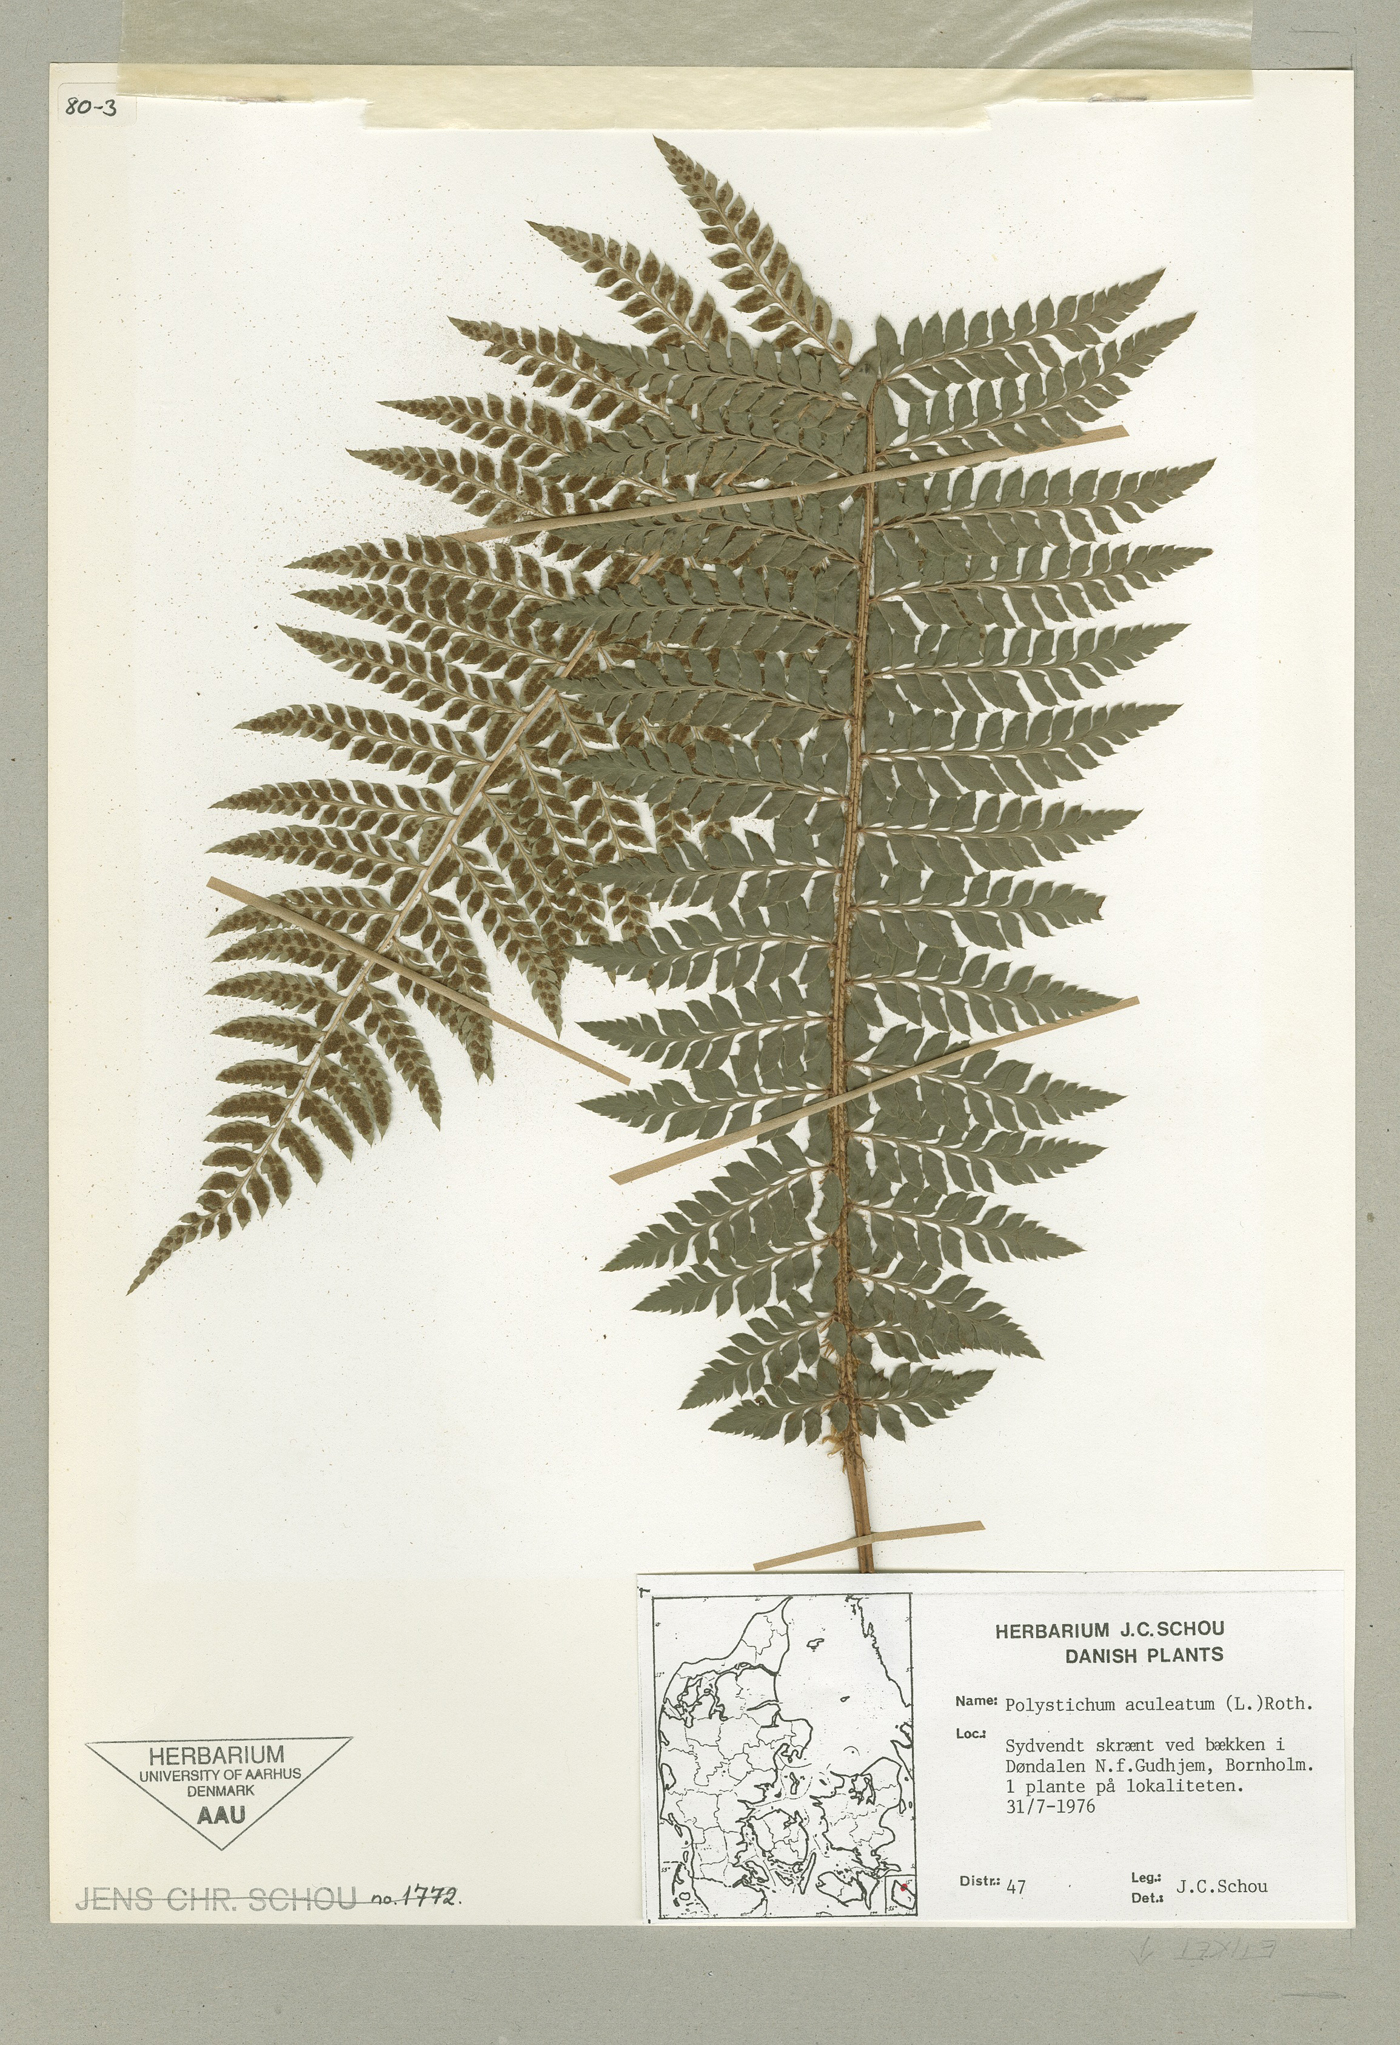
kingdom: Plantae
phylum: Tracheophyta
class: Polypodiopsida
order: Polypodiales
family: Dryopteridaceae
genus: Polystichum
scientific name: Polystichum aculeatum
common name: Hard shield-fern
